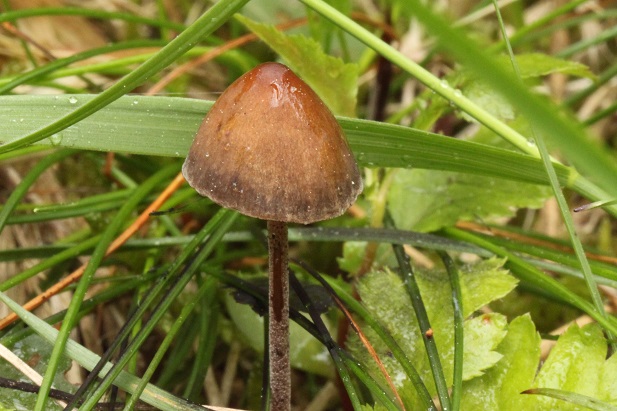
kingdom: Fungi
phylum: Basidiomycota
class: Agaricomycetes
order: Agaricales
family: Bolbitiaceae
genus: Panaeolus
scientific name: Panaeolus acuminatus
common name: høj glanshat
